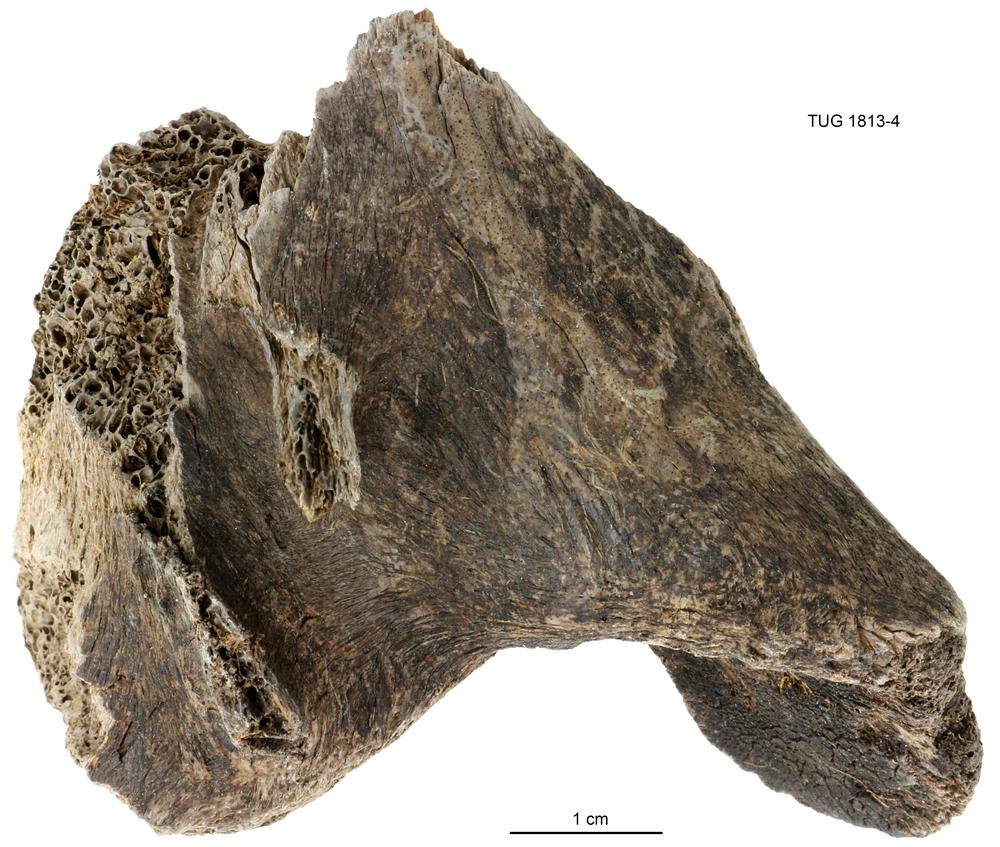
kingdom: Animalia
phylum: Chordata
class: Mammalia
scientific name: Mammalia
